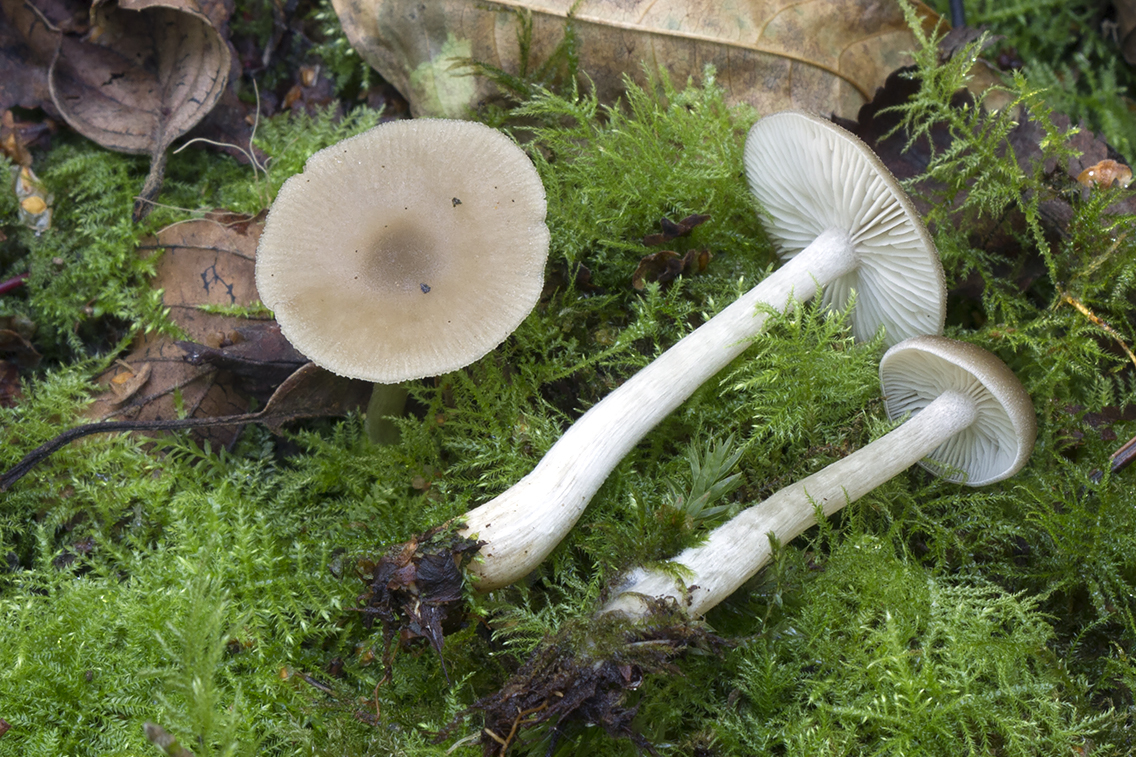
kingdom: Fungi
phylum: Basidiomycota
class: Agaricomycetes
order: Agaricales
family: Entolomataceae
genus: Entoloma
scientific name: Entoloma sericatum
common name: rank rødblad
